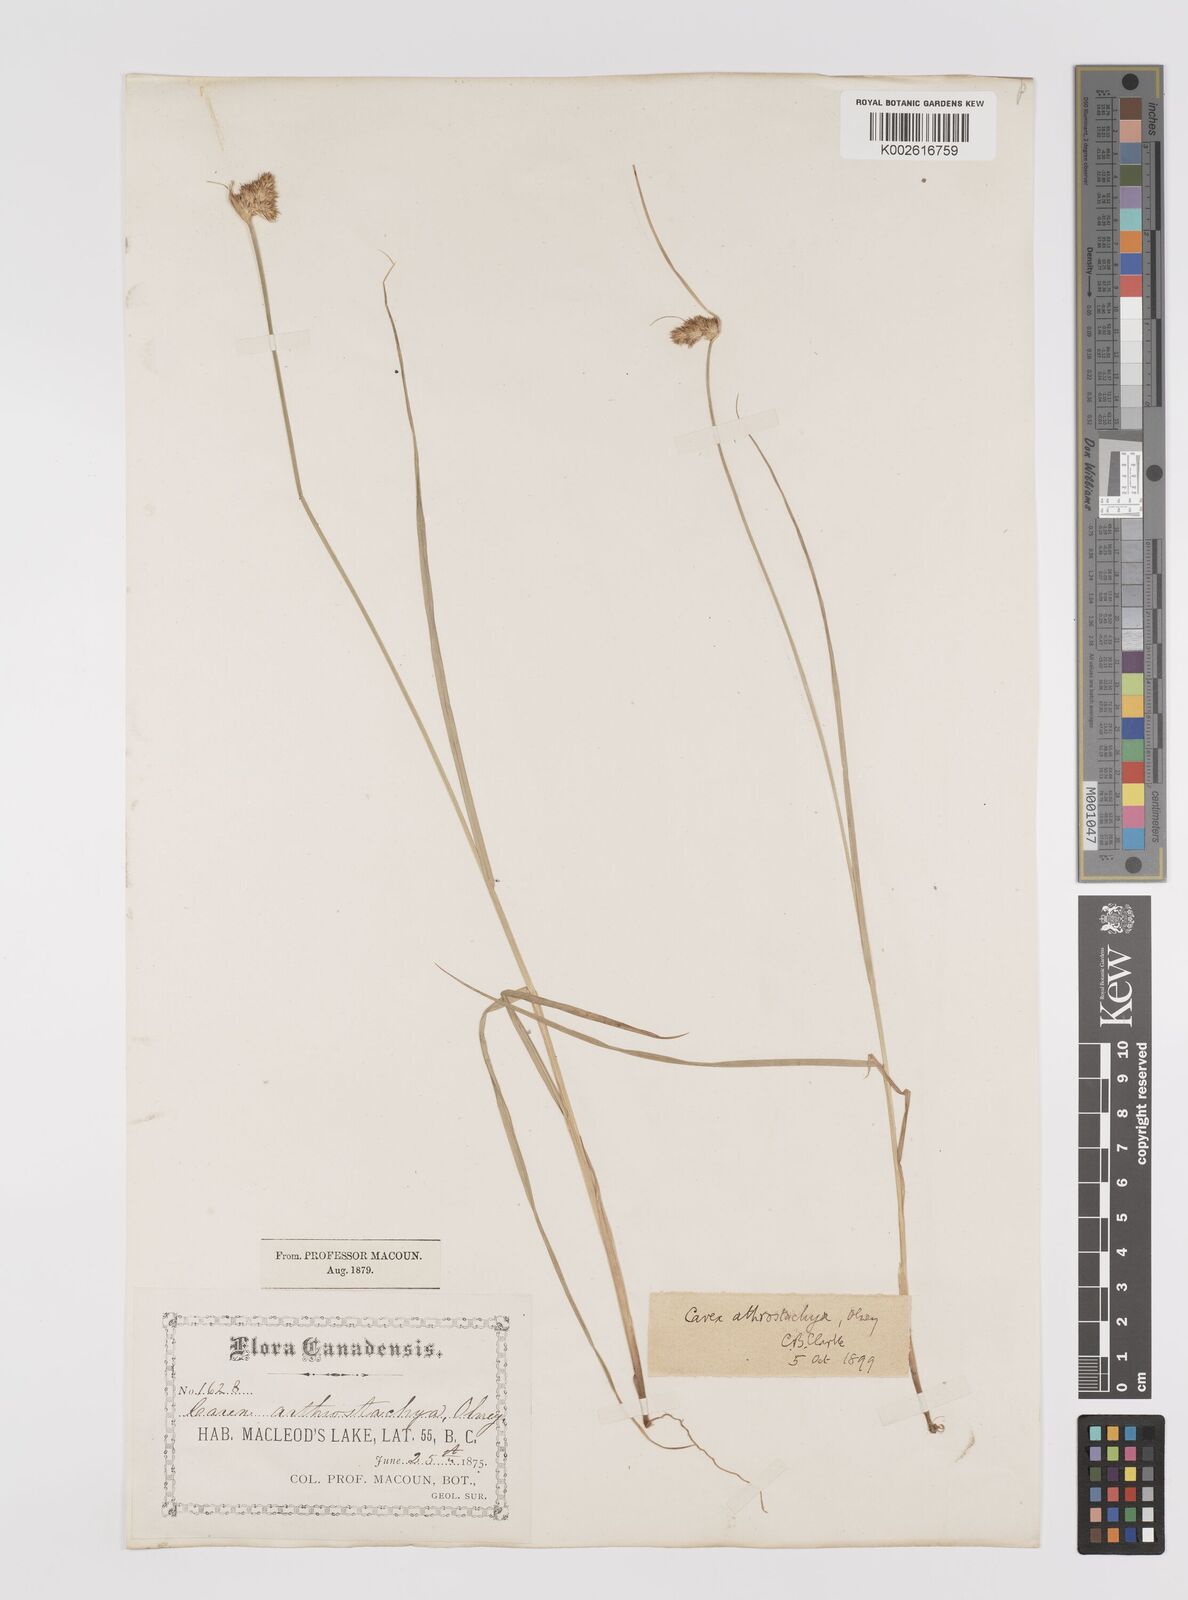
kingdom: Plantae
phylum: Tracheophyta
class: Liliopsida
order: Poales
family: Cyperaceae
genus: Carex
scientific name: Carex athrostachya
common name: Slenderbeak sedge
